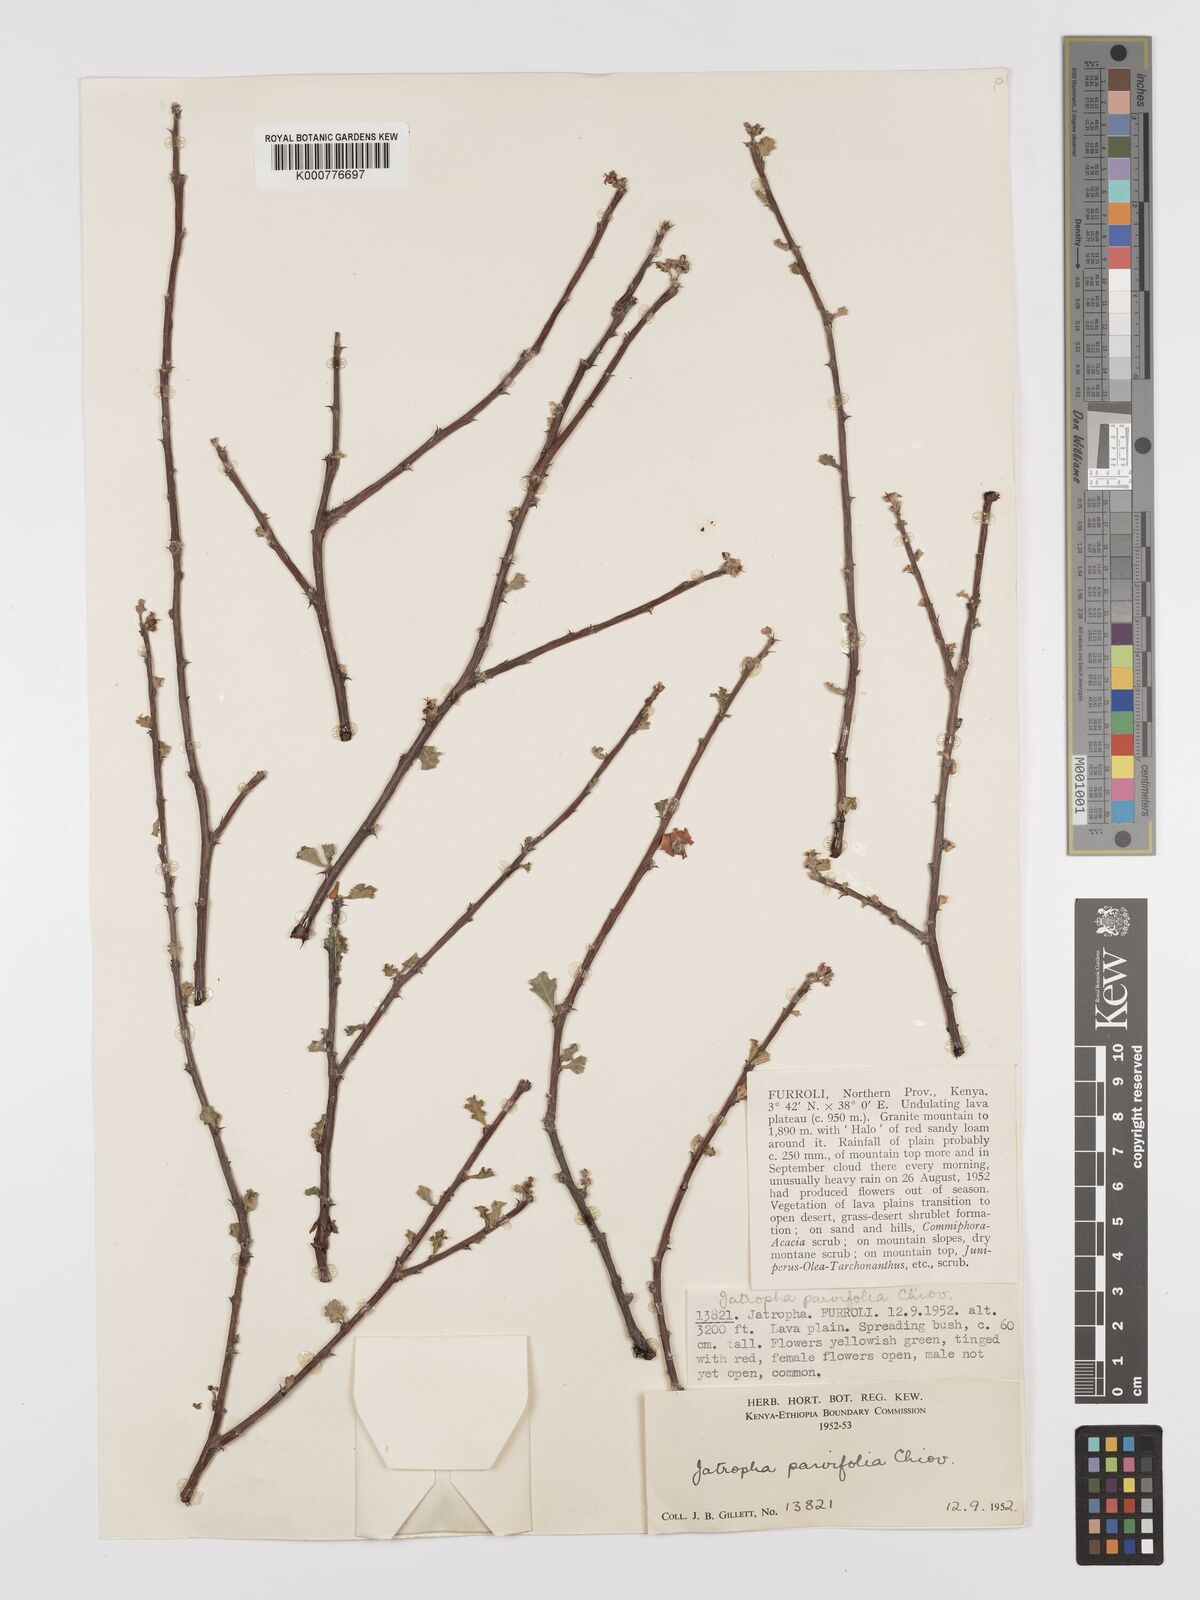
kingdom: Plantae
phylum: Tracheophyta
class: Magnoliopsida
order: Malpighiales
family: Euphorbiaceae
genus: Jatropha
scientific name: Jatropha rivae
